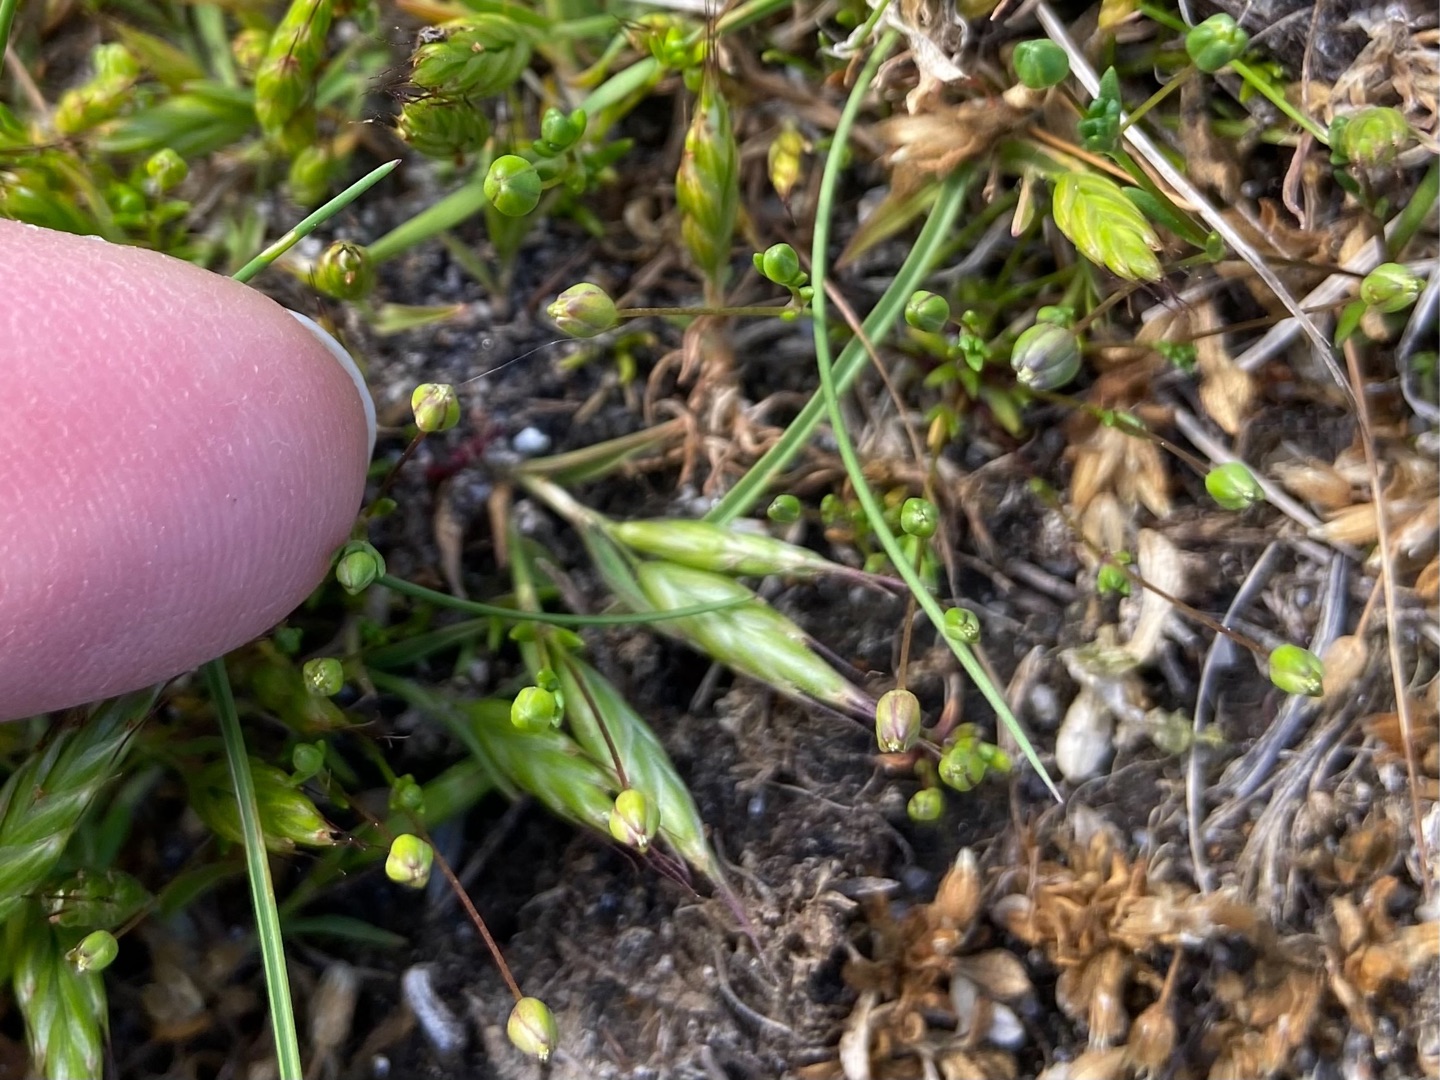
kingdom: Plantae
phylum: Tracheophyta
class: Liliopsida
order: Poales
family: Poaceae
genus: Bromus
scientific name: Bromus hordeaceus
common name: Liggende hejre
